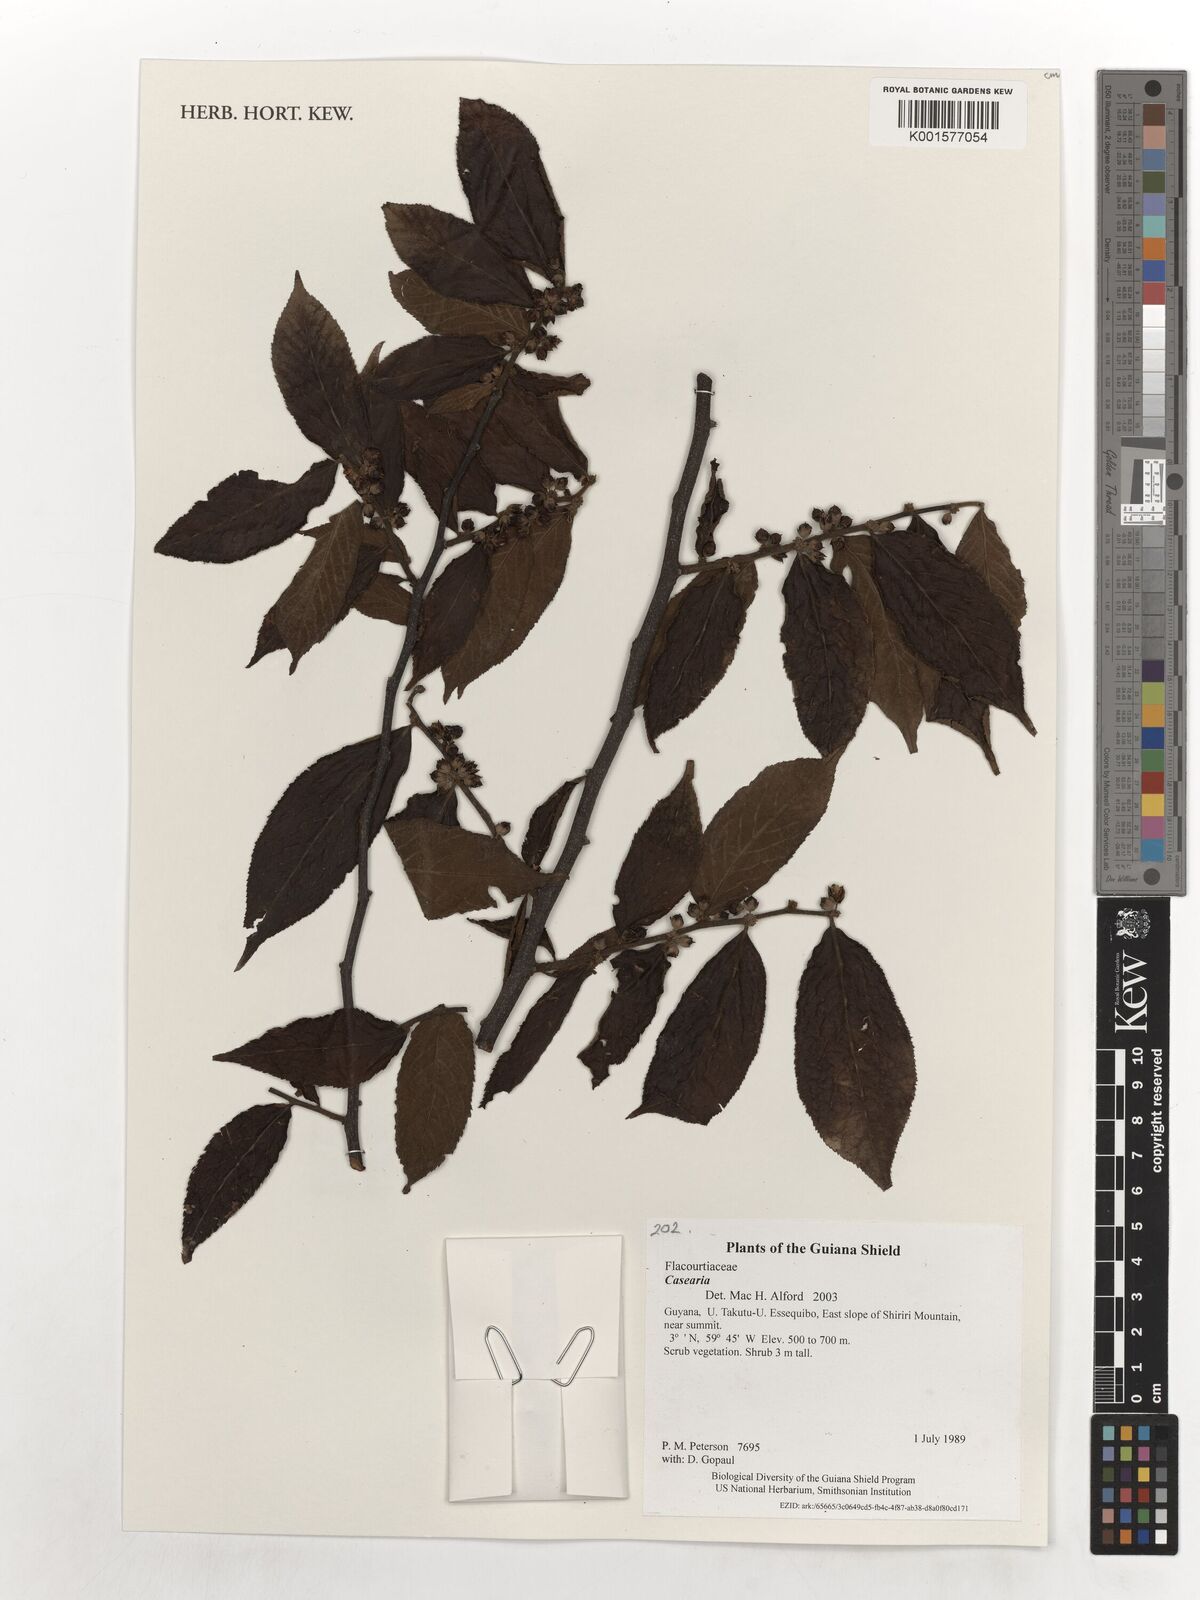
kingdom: Plantae
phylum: Tracheophyta
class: Magnoliopsida
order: Malpighiales
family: Salicaceae
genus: Casearia
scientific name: Casearia
